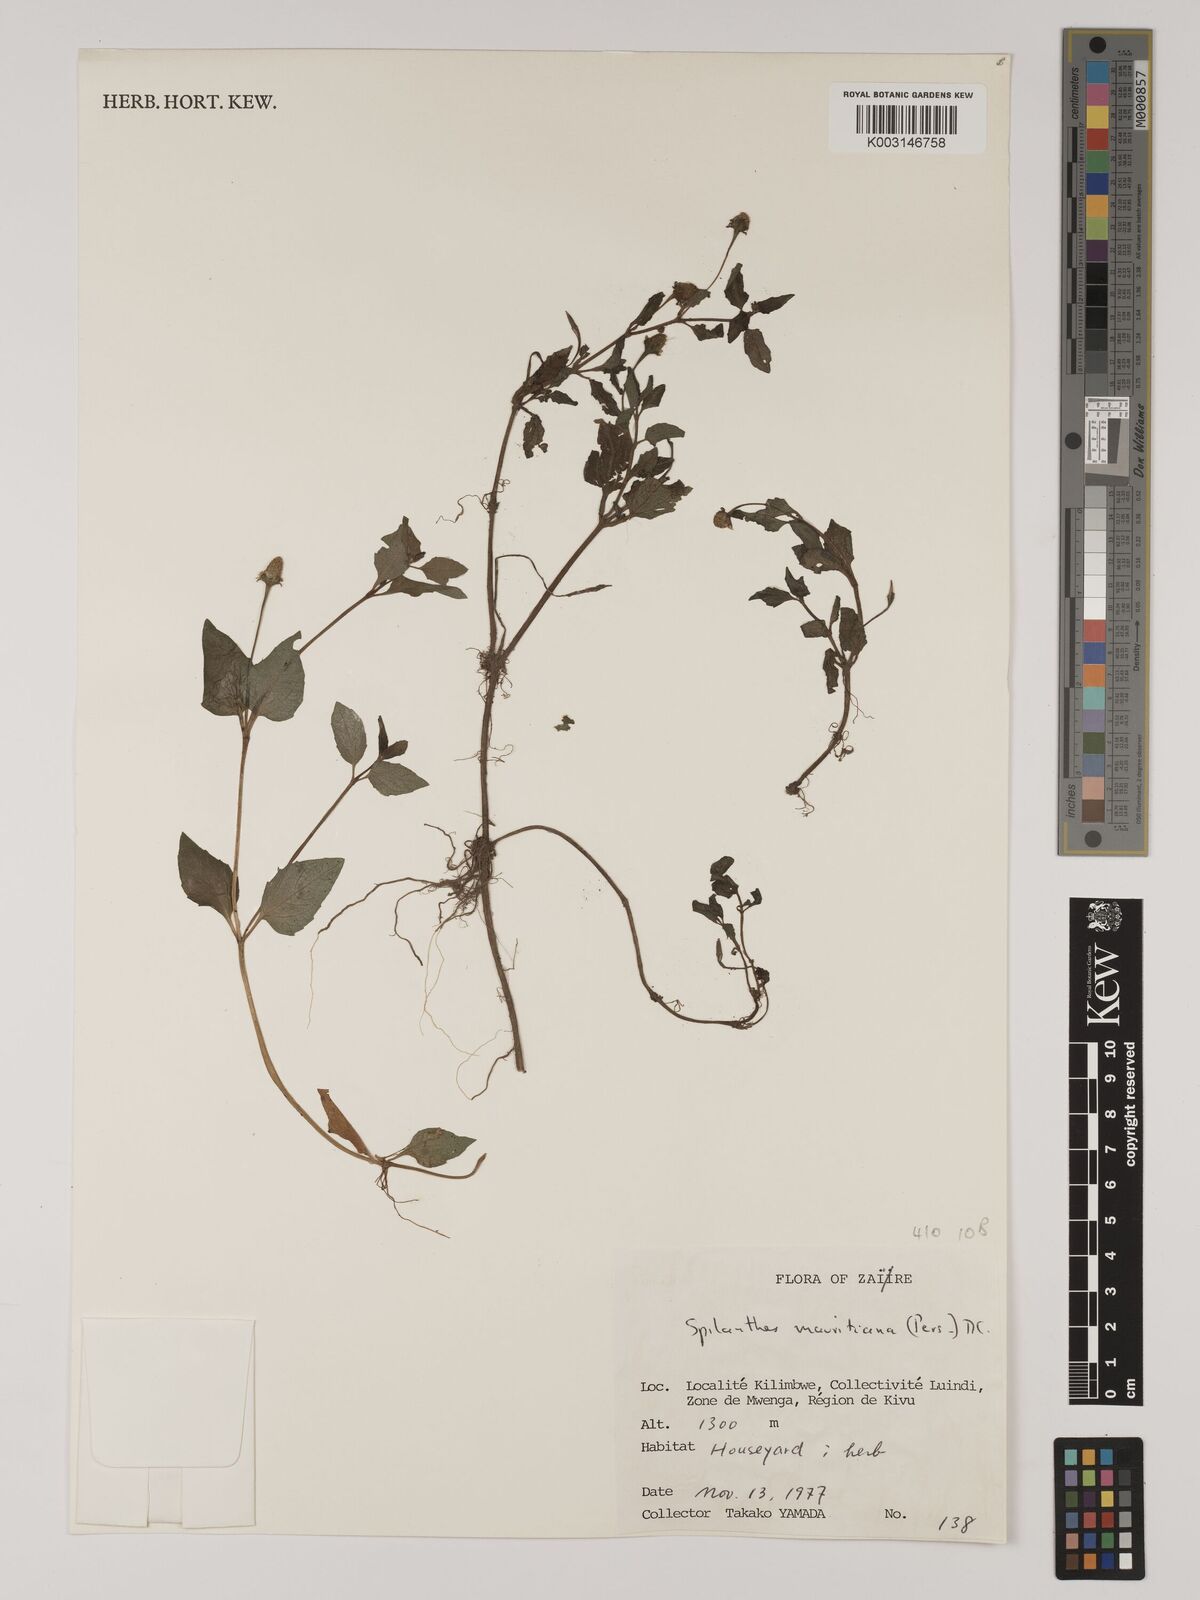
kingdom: Plantae
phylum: Tracheophyta
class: Magnoliopsida
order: Asterales
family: Asteraceae
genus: Acmella
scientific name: Acmella caulirhiza
